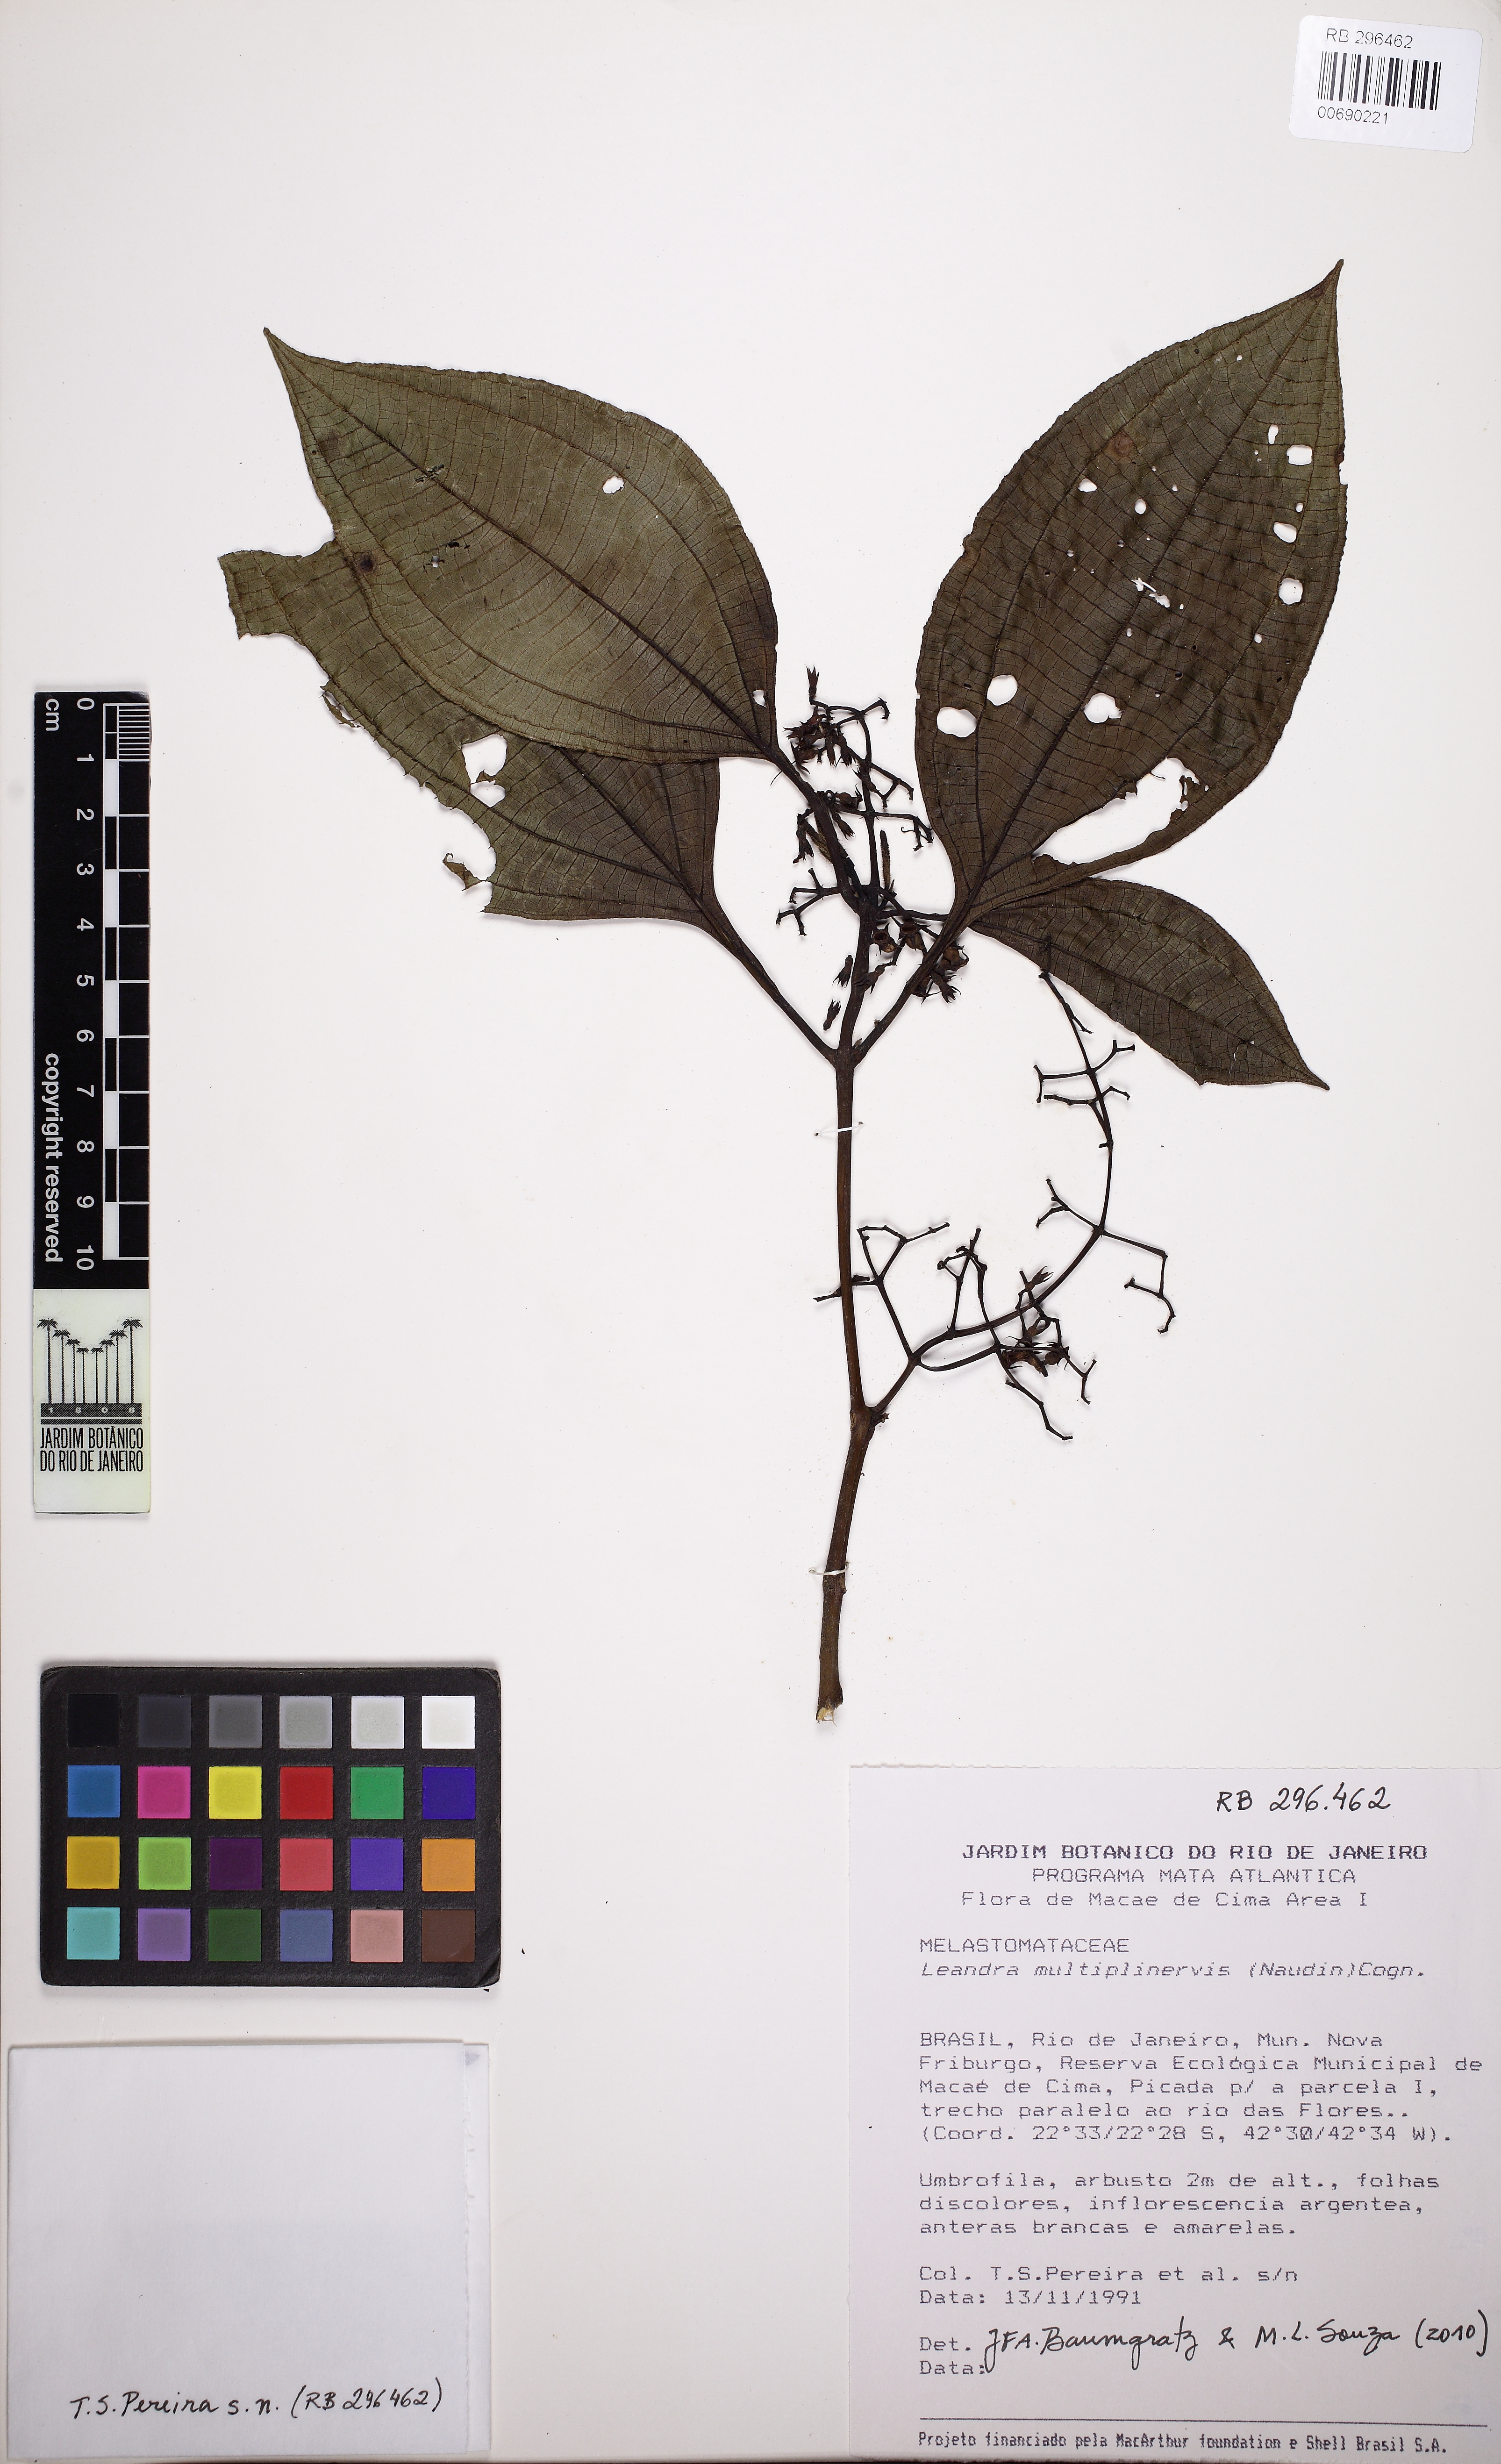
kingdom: Plantae
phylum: Tracheophyta
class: Magnoliopsida
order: Myrtales
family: Melastomataceae
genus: Miconia
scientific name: Miconia oocarpa
